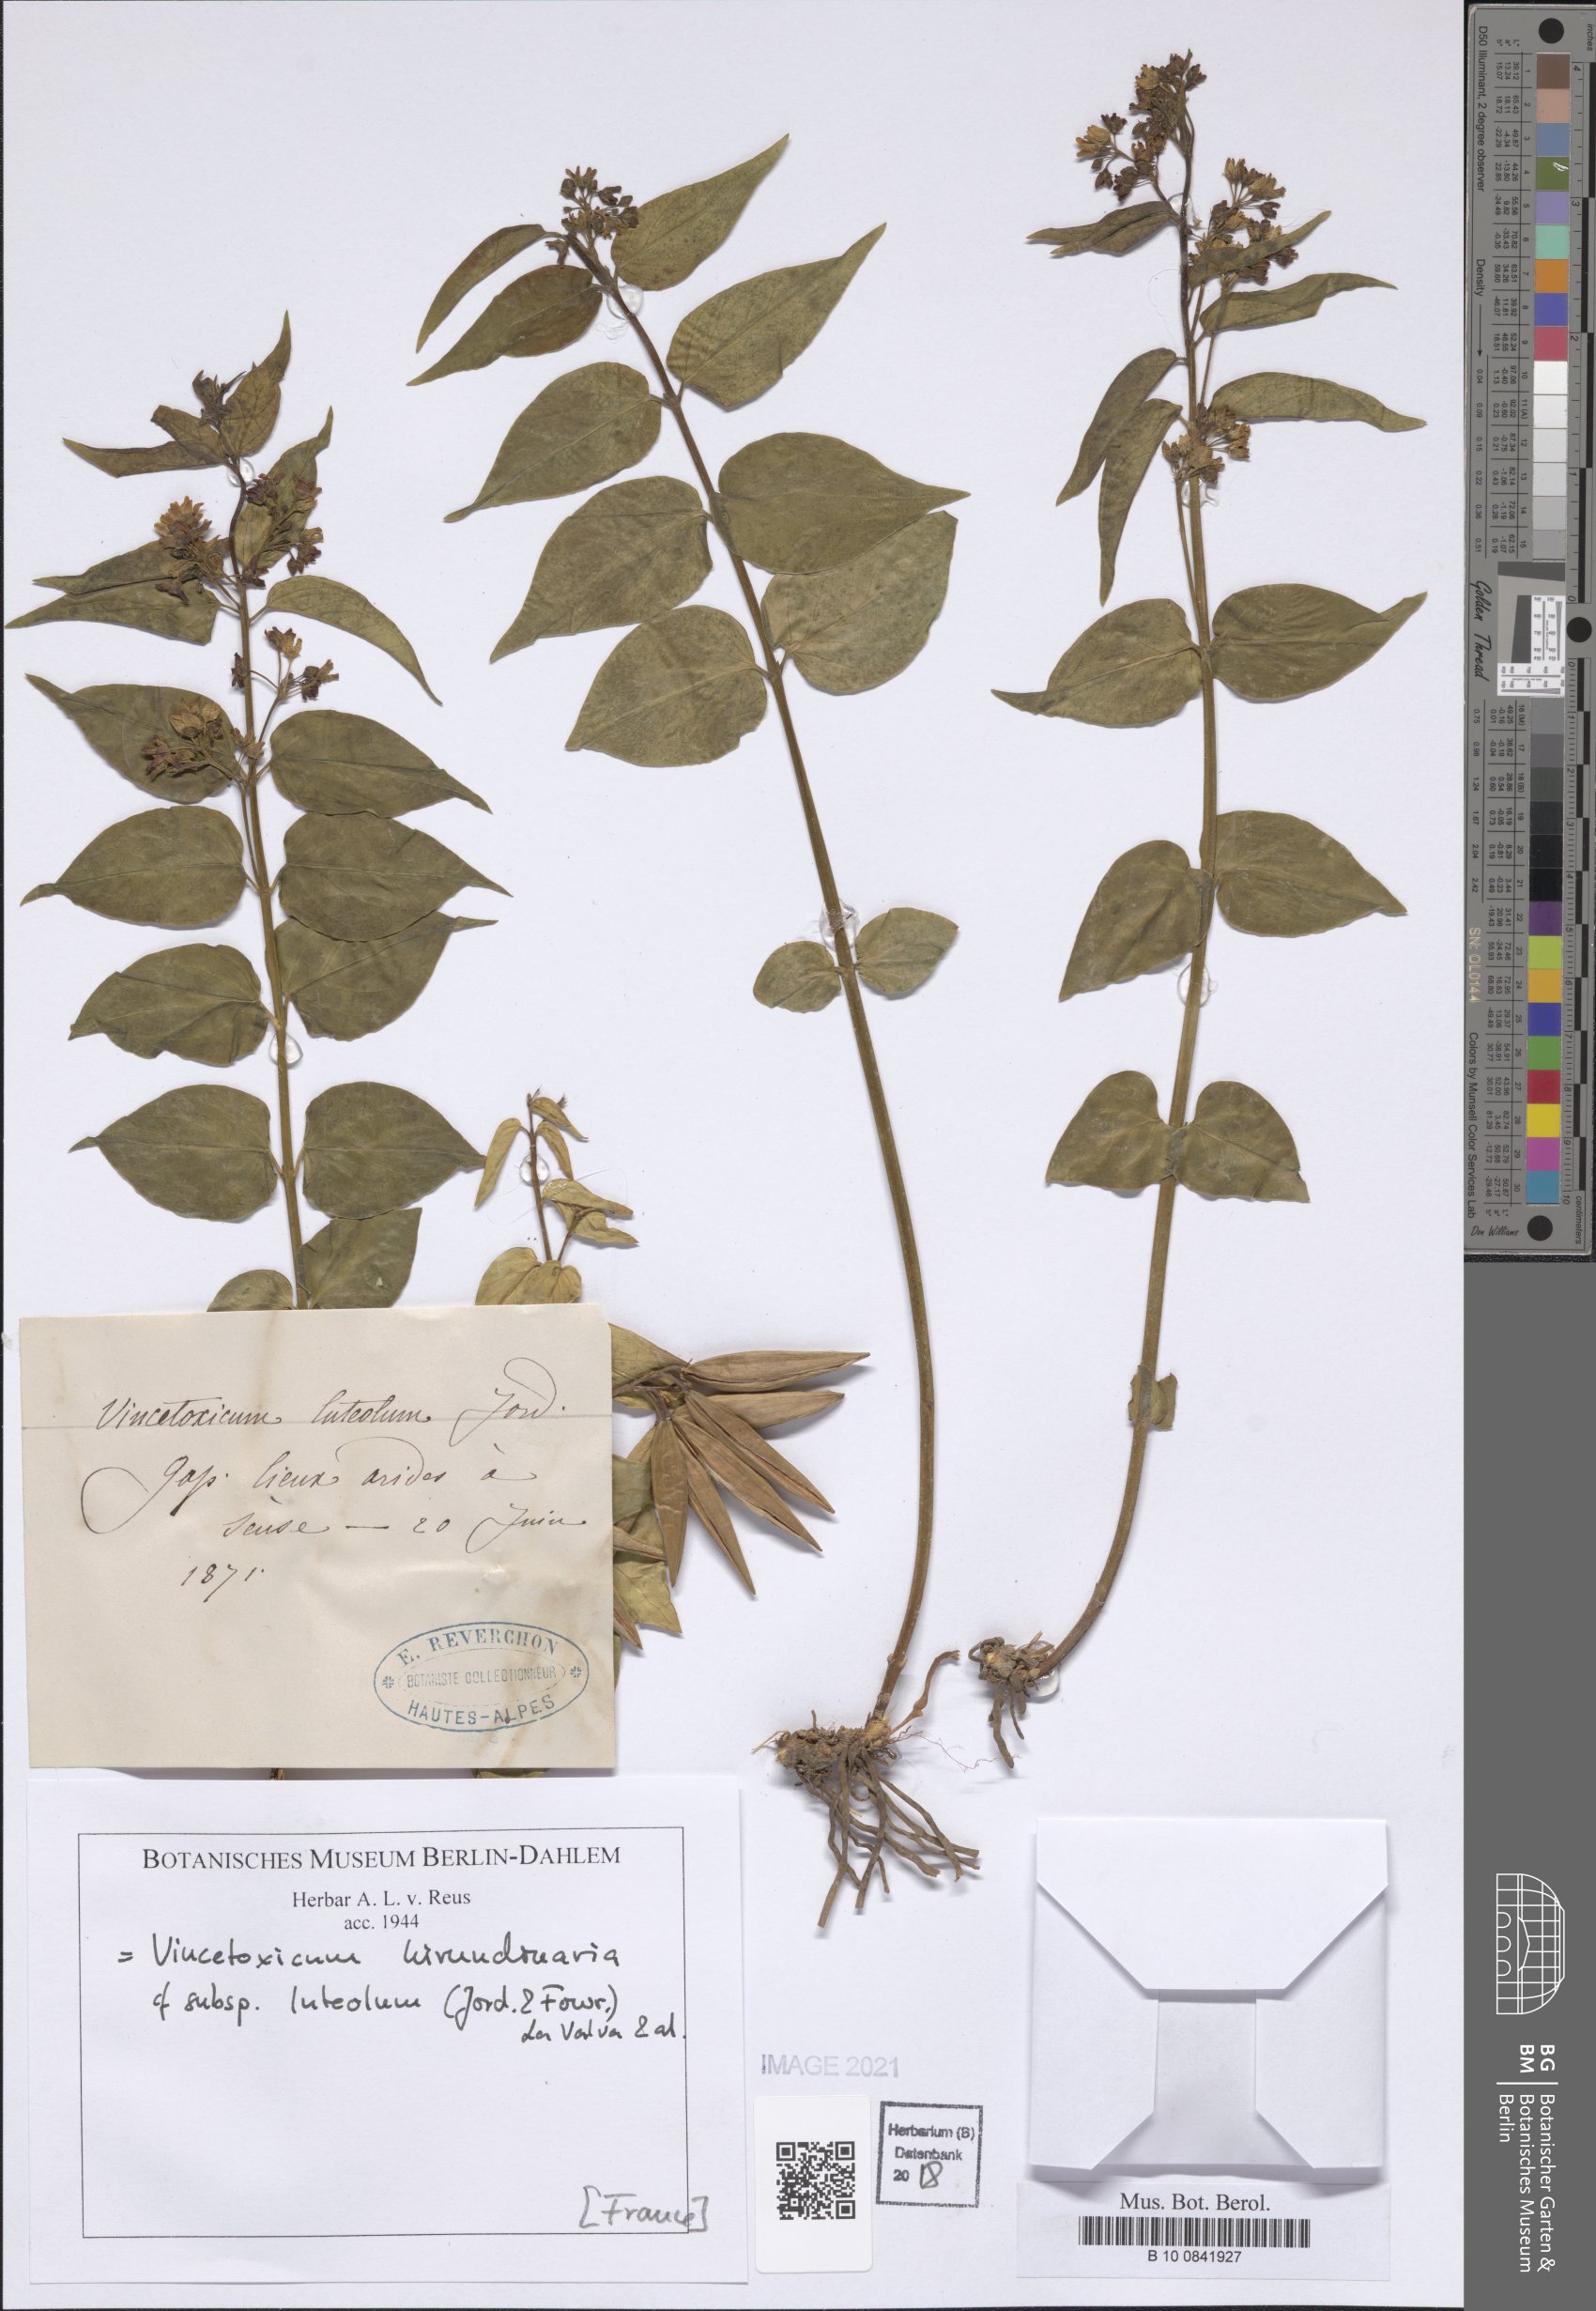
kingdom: Plantae
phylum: Tracheophyta
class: Magnoliopsida
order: Gentianales
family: Apocynaceae
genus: Vincetoxicum
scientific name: Vincetoxicum hirundinaria
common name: White swallowwort
